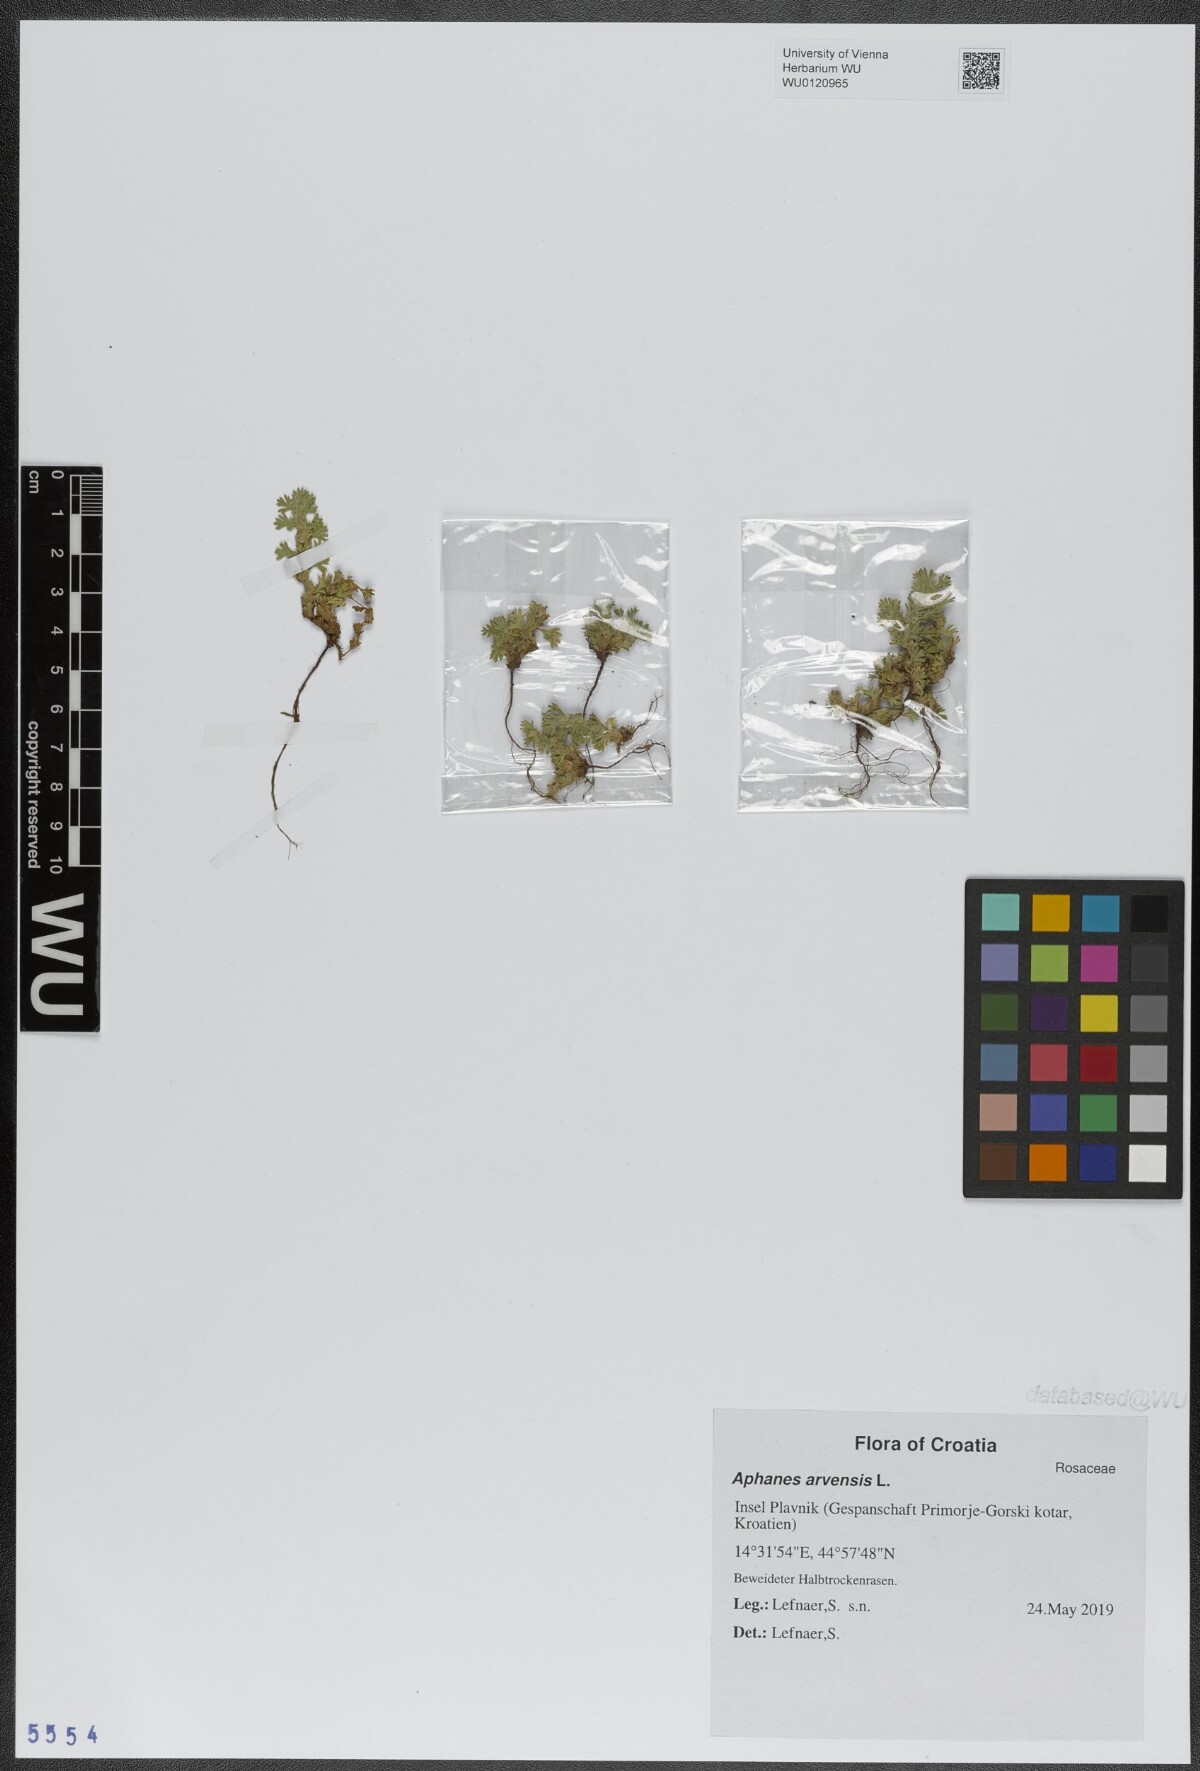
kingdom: Plantae
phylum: Tracheophyta
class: Magnoliopsida
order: Rosales
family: Rosaceae
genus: Aphanes
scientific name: Aphanes arvensis
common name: Parsley-piert
